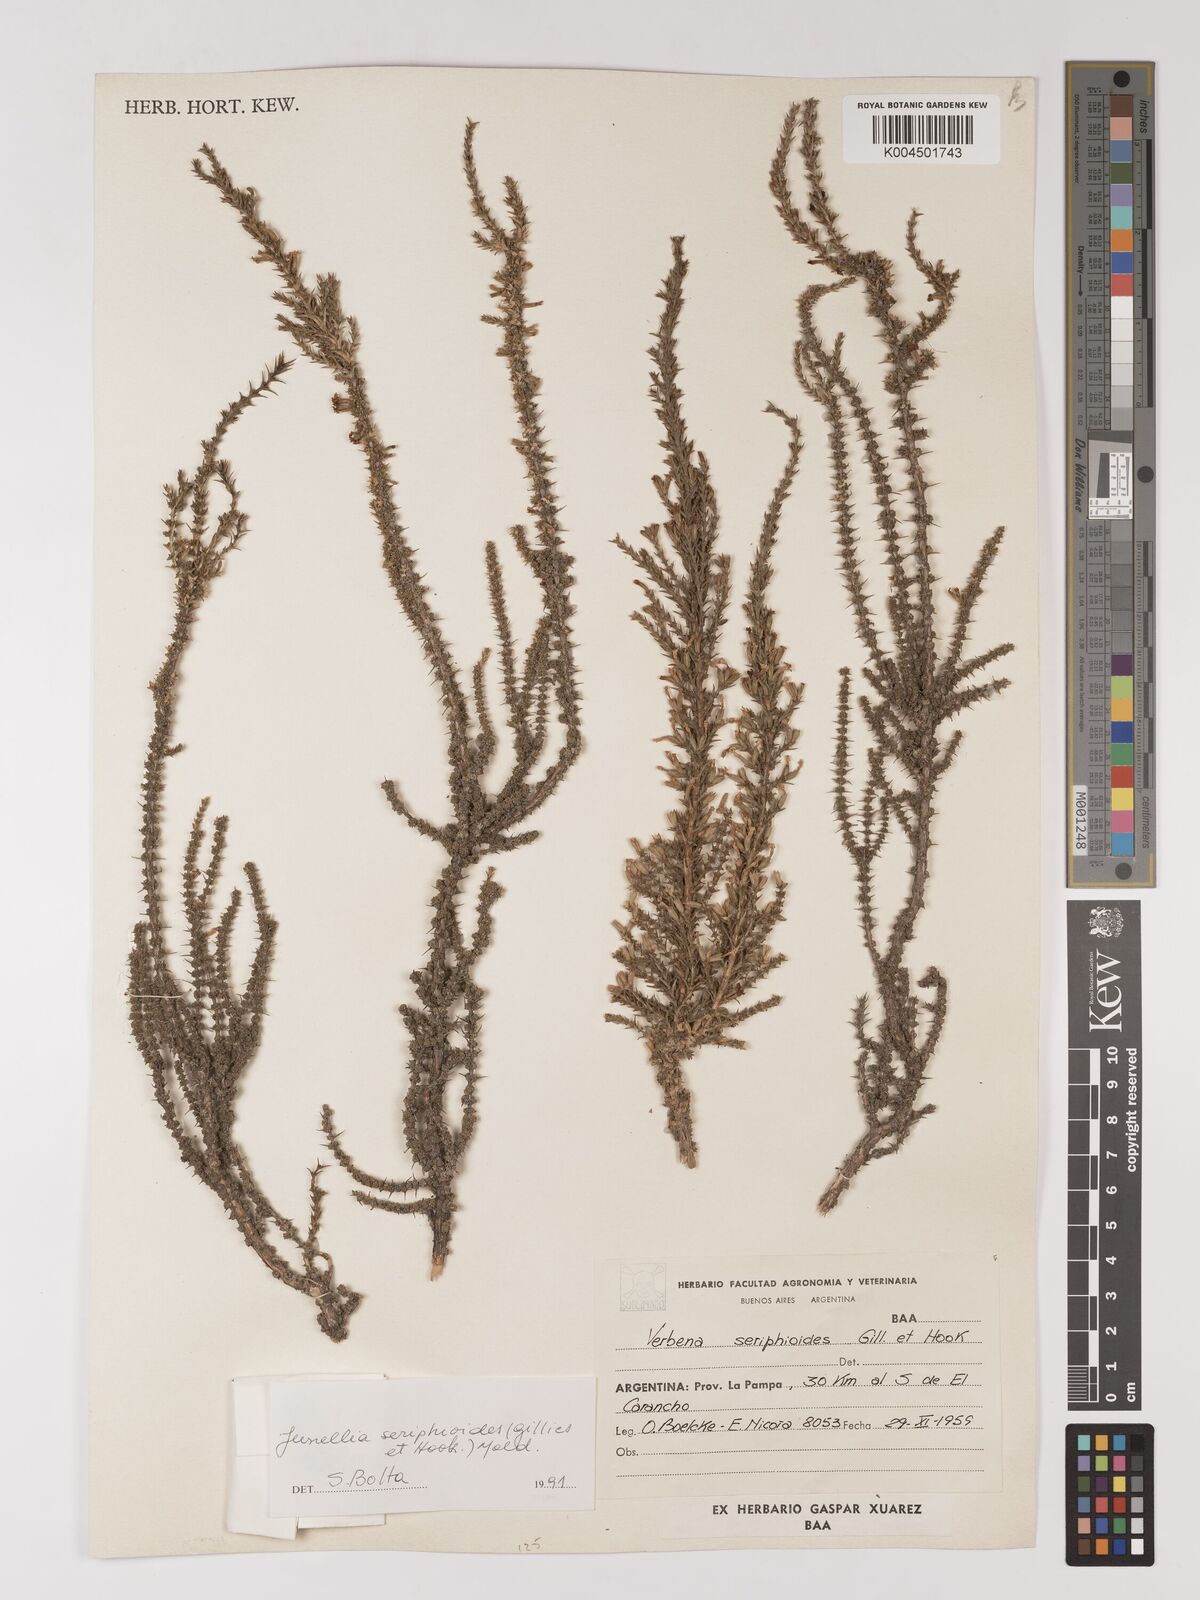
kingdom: Plantae
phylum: Tracheophyta
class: Magnoliopsida
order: Lamiales
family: Verbenaceae
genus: Junellia
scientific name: Junellia seriphioides
